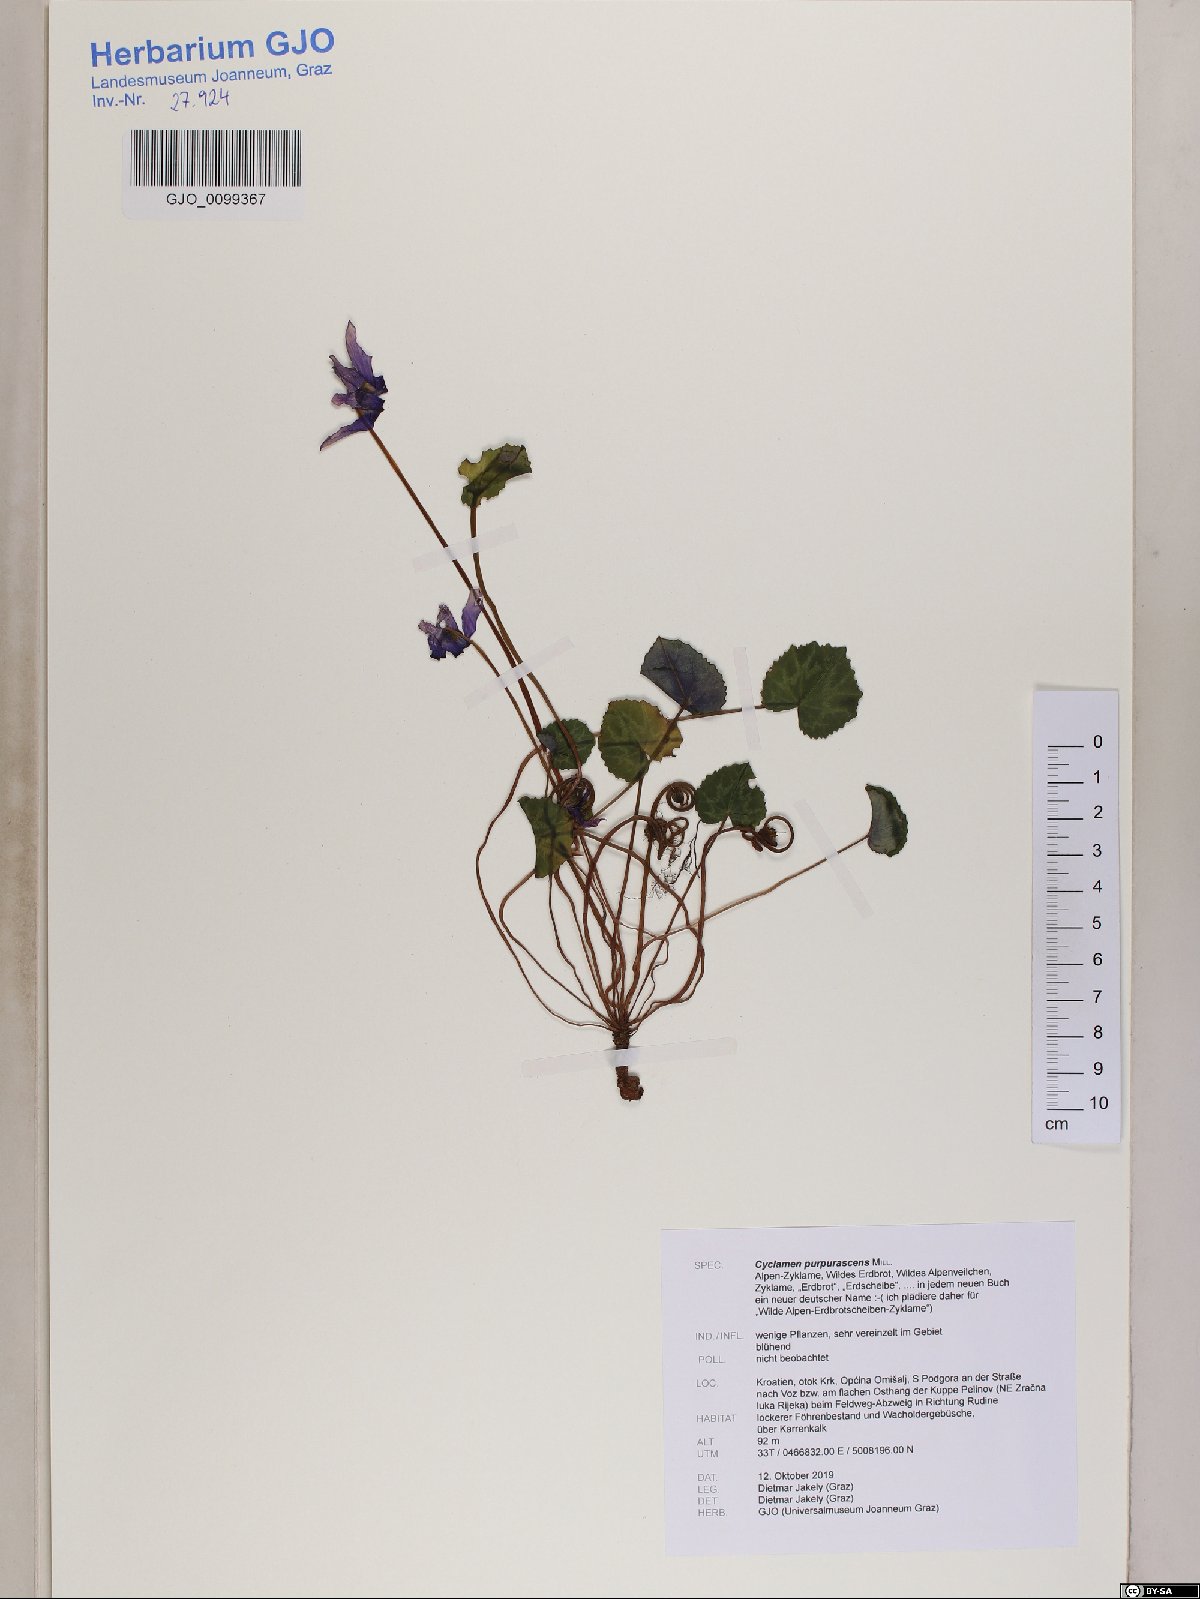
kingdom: Plantae
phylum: Tracheophyta
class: Magnoliopsida
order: Ericales
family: Primulaceae
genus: Cyclamen
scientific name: Cyclamen purpurascens
